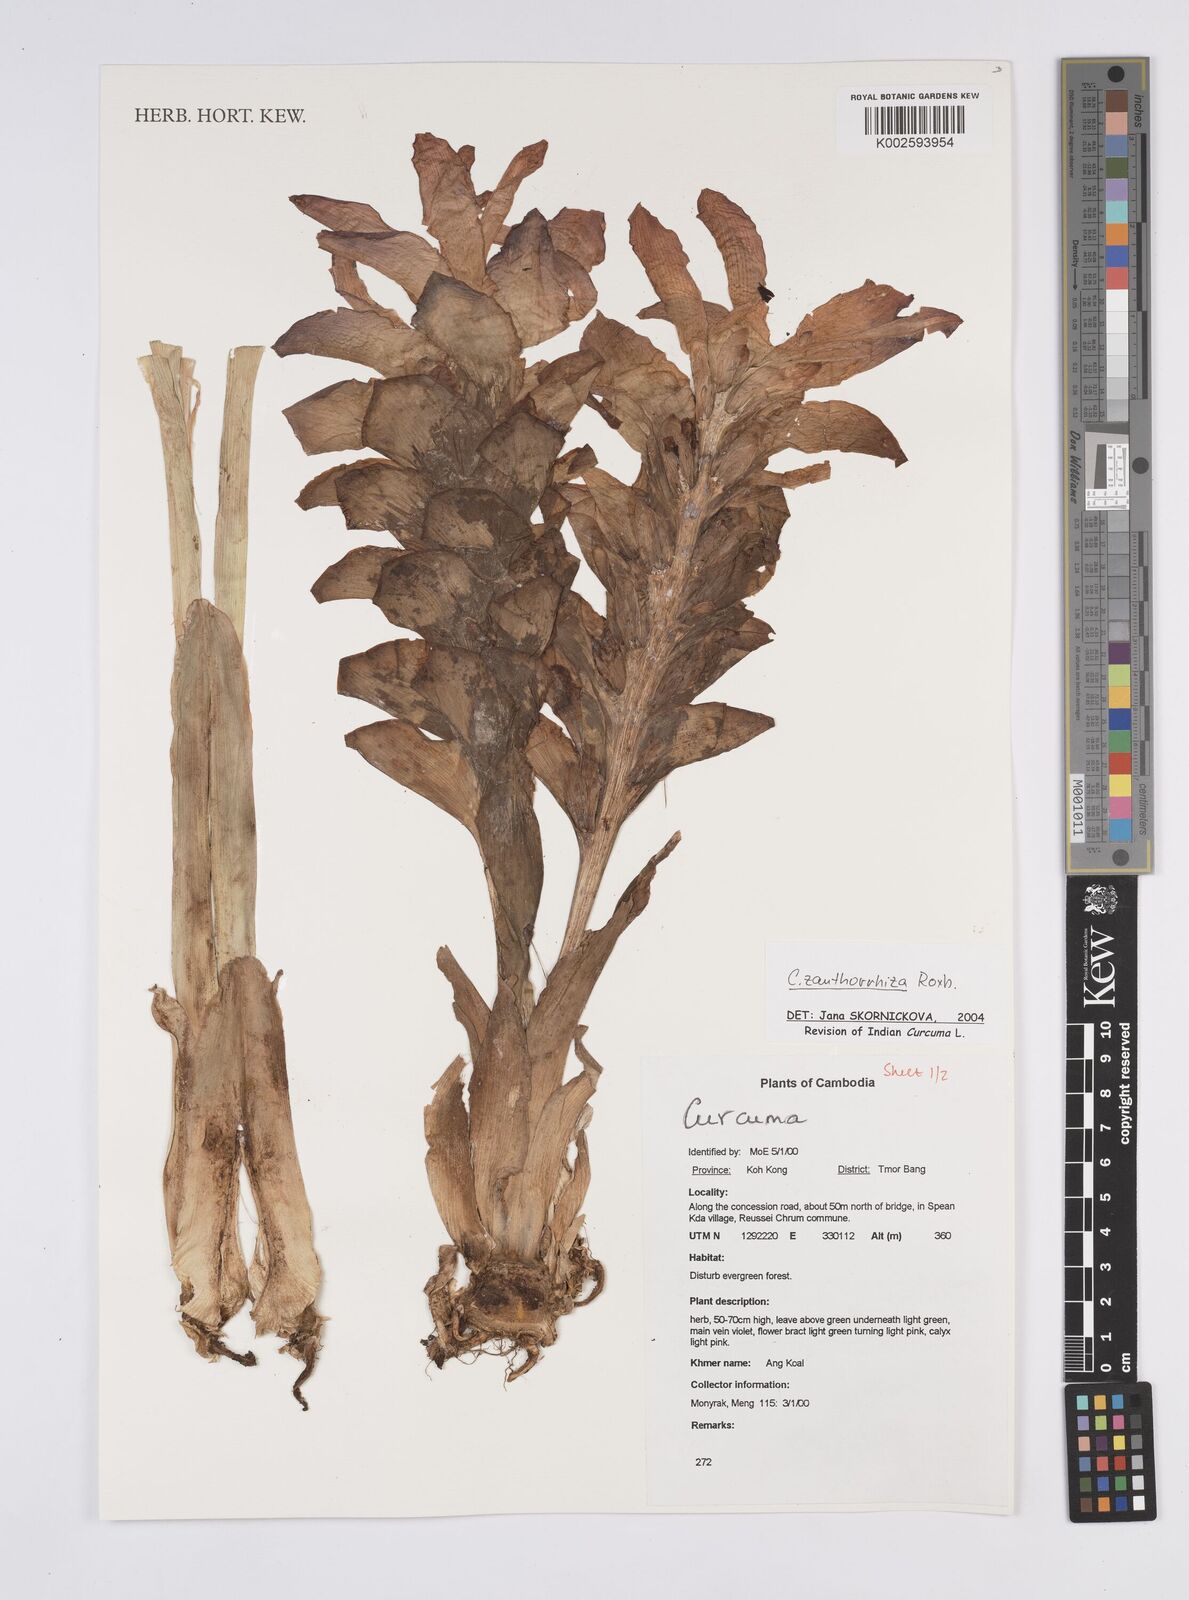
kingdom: Plantae
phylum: Tracheophyta
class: Liliopsida
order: Zingiberales
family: Zingiberaceae
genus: Curcuma
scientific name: Curcuma zanthorrhiza
